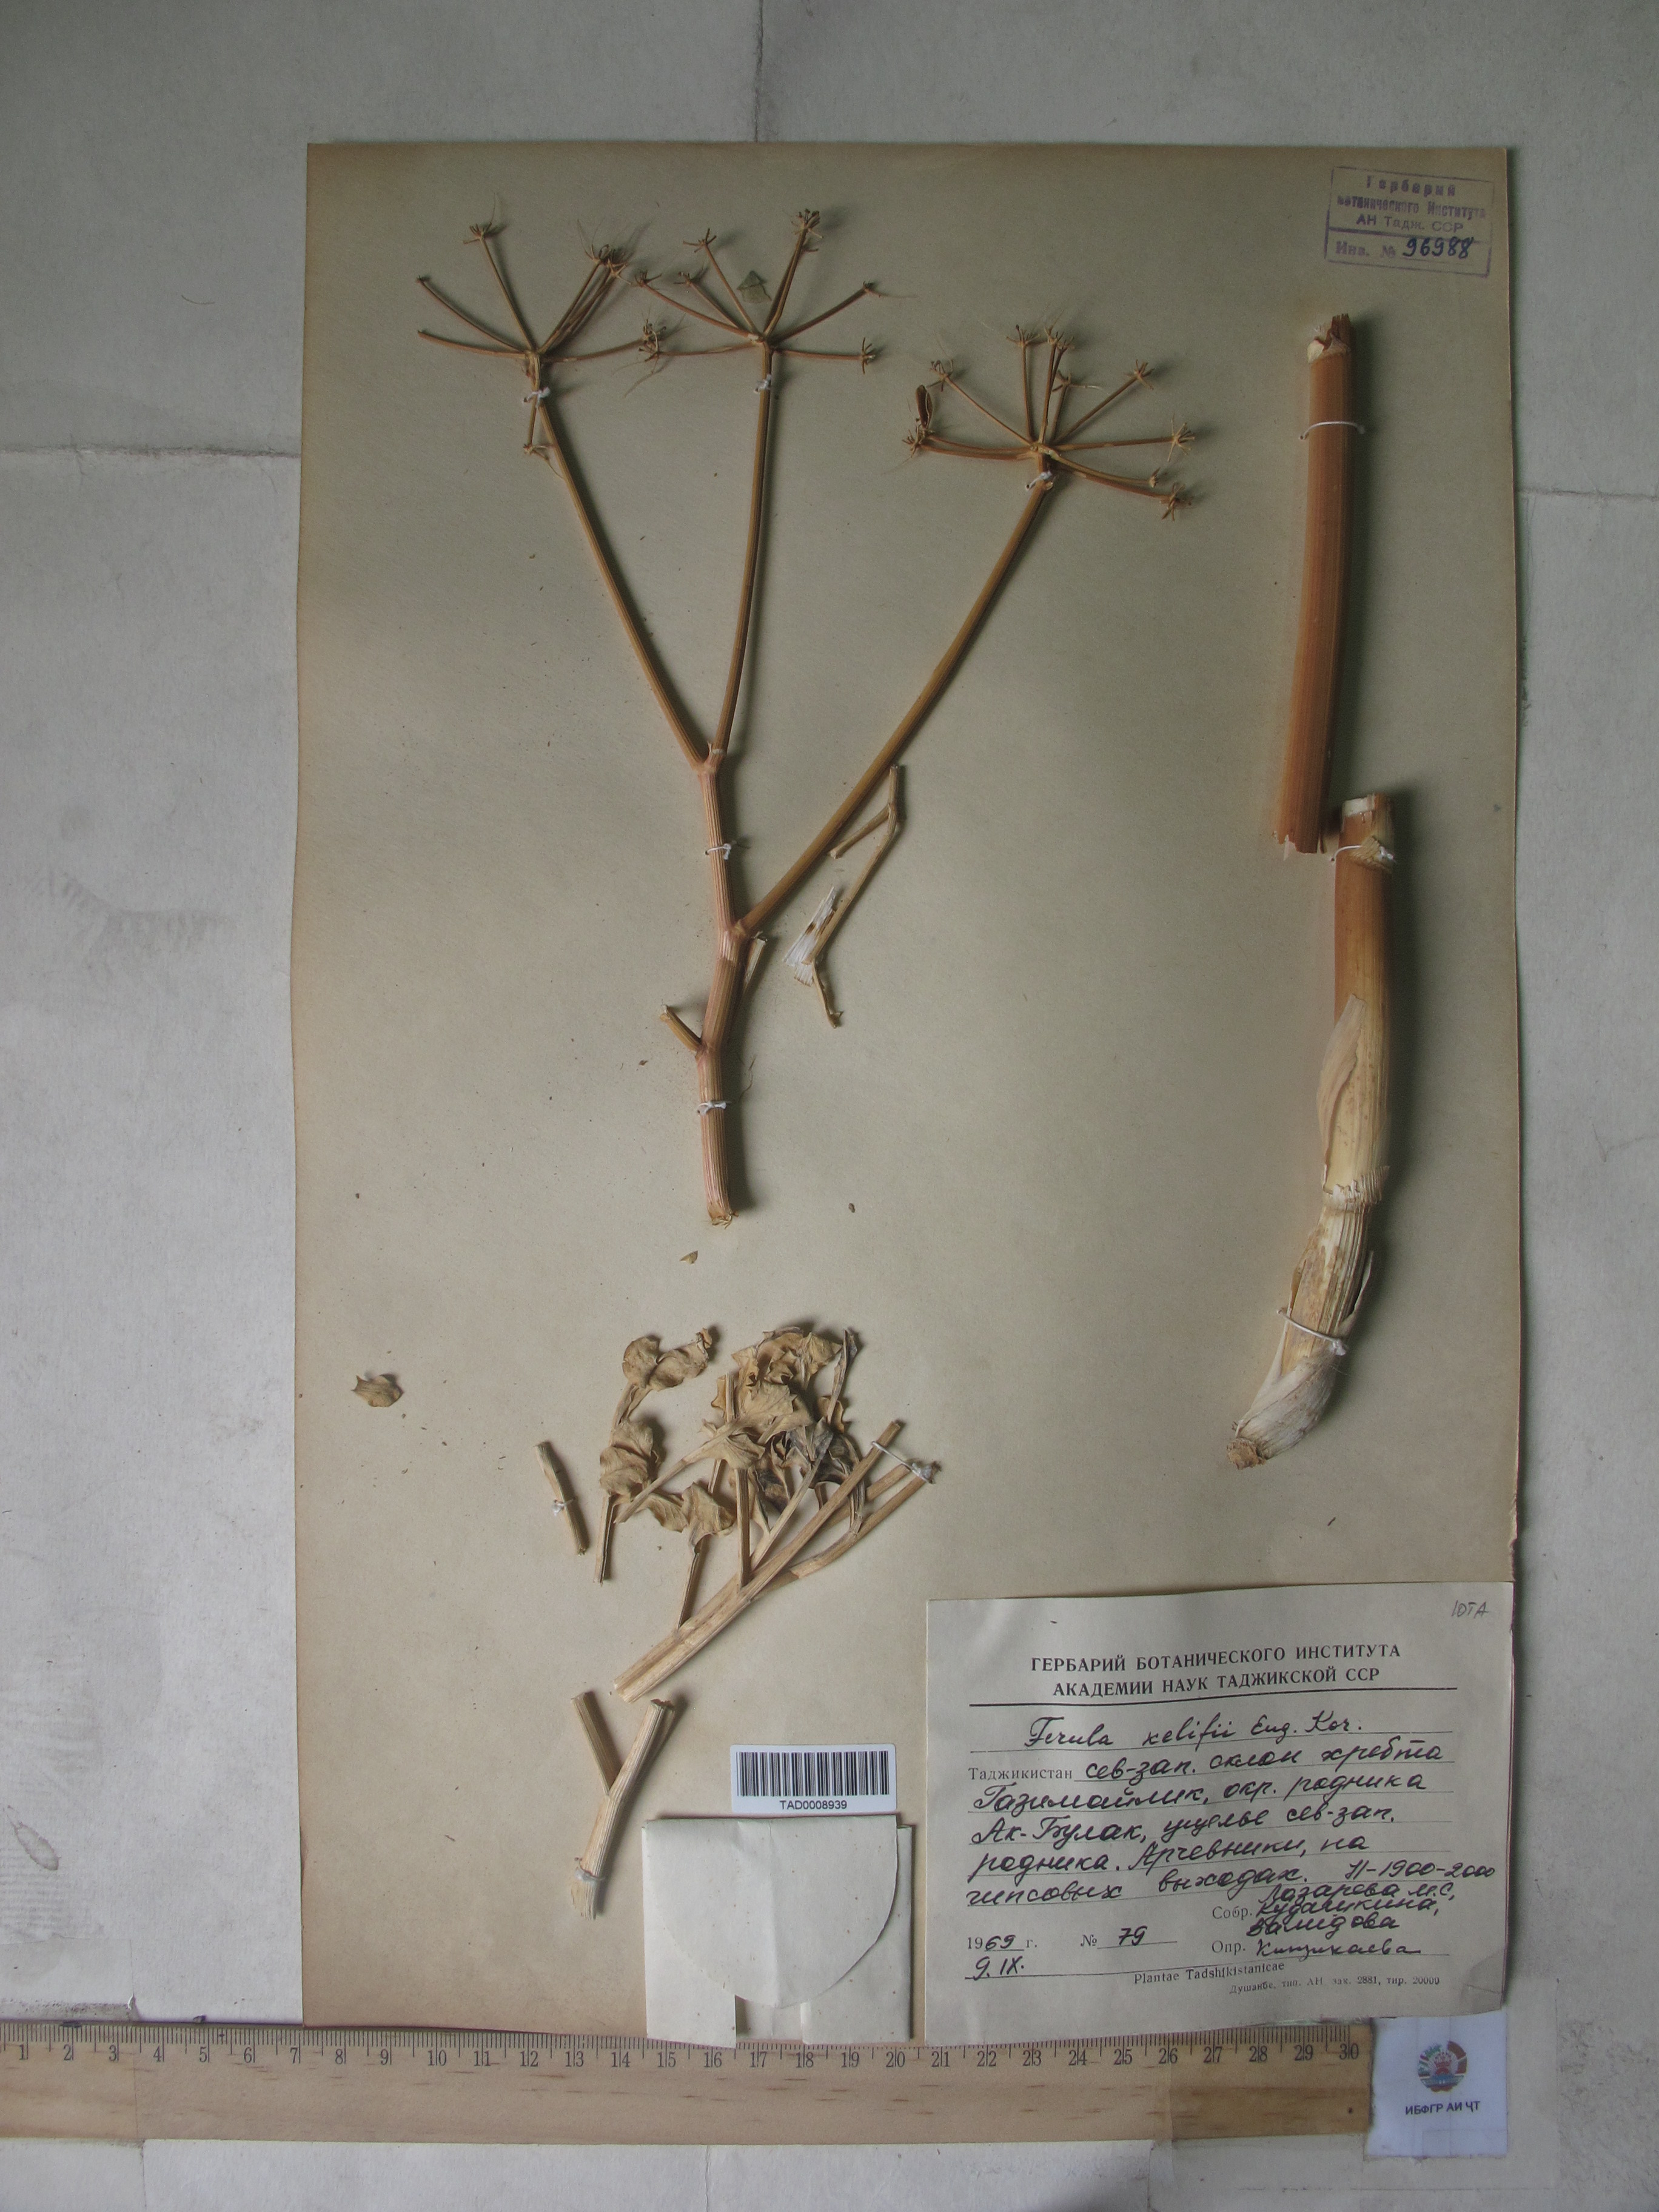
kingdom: Plantae
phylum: Tracheophyta
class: Magnoliopsida
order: Apiales
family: Apiaceae
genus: Ferula
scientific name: Ferula kelifi
